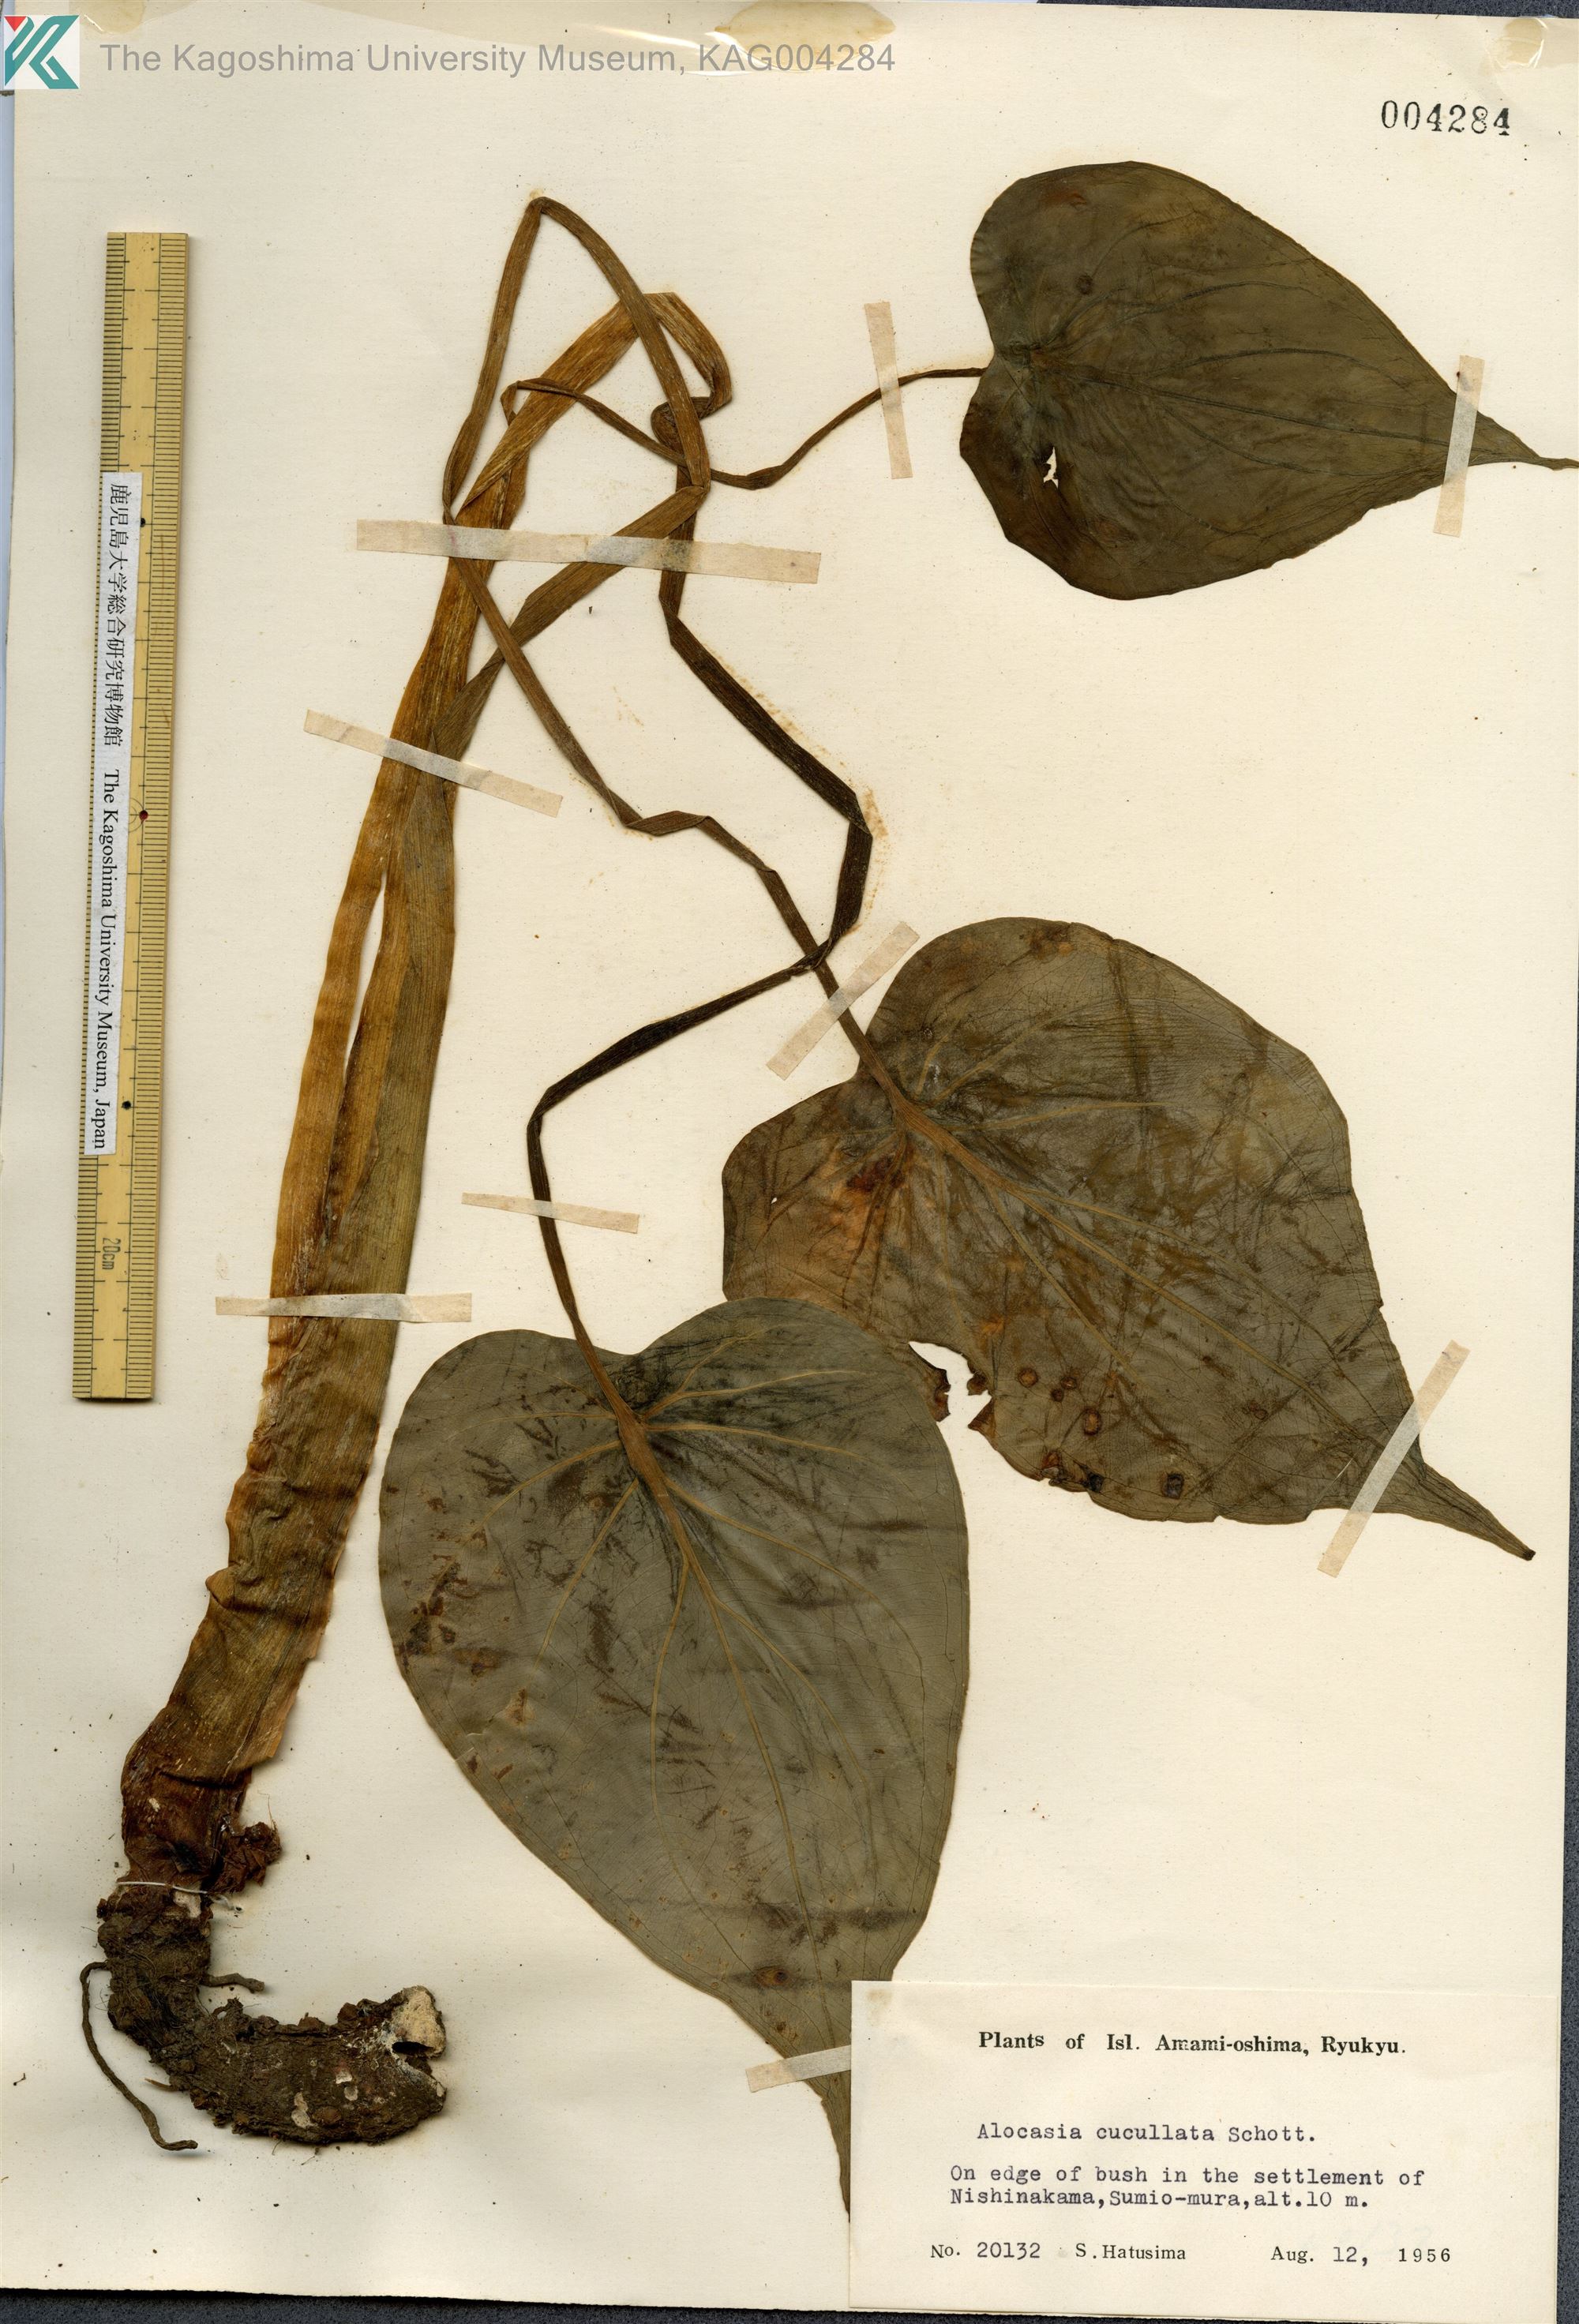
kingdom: Plantae
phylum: Tracheophyta
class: Liliopsida
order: Alismatales
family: Araceae
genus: Alocasia
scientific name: Alocasia cucullata
